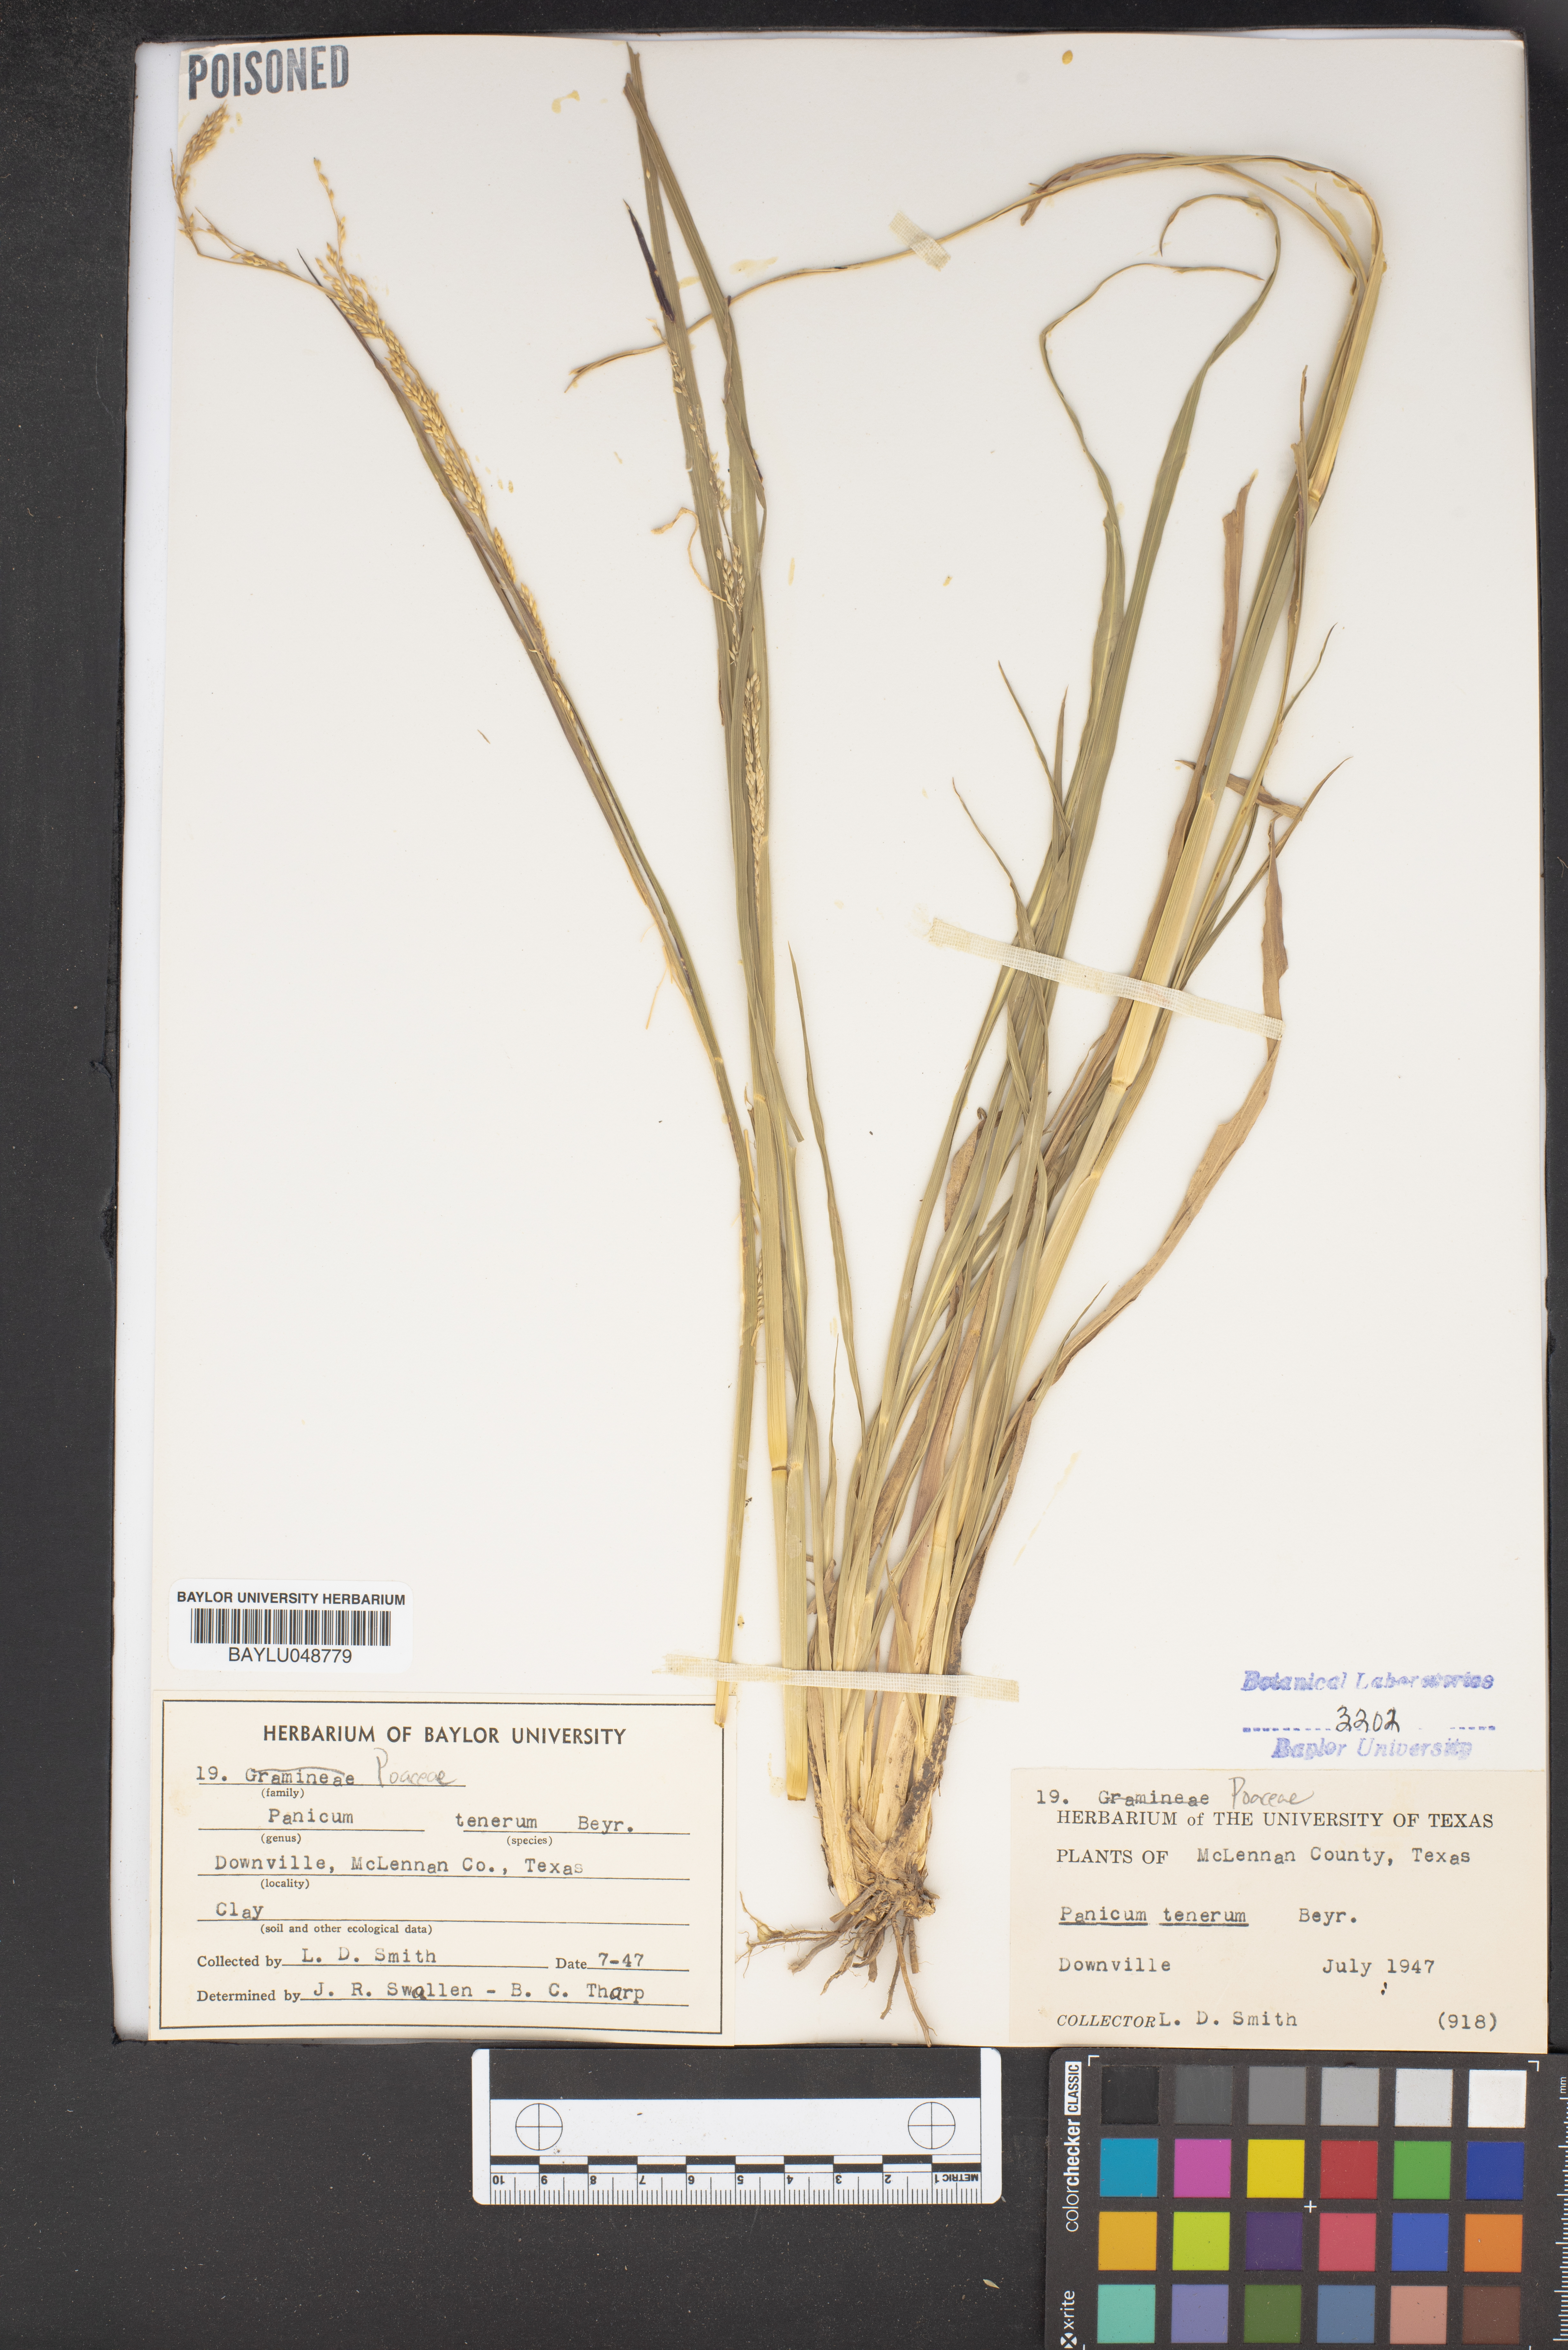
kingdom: Plantae
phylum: Tracheophyta
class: Liliopsida
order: Poales
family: Poaceae
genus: Coleataenia
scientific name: Coleataenia tenera
